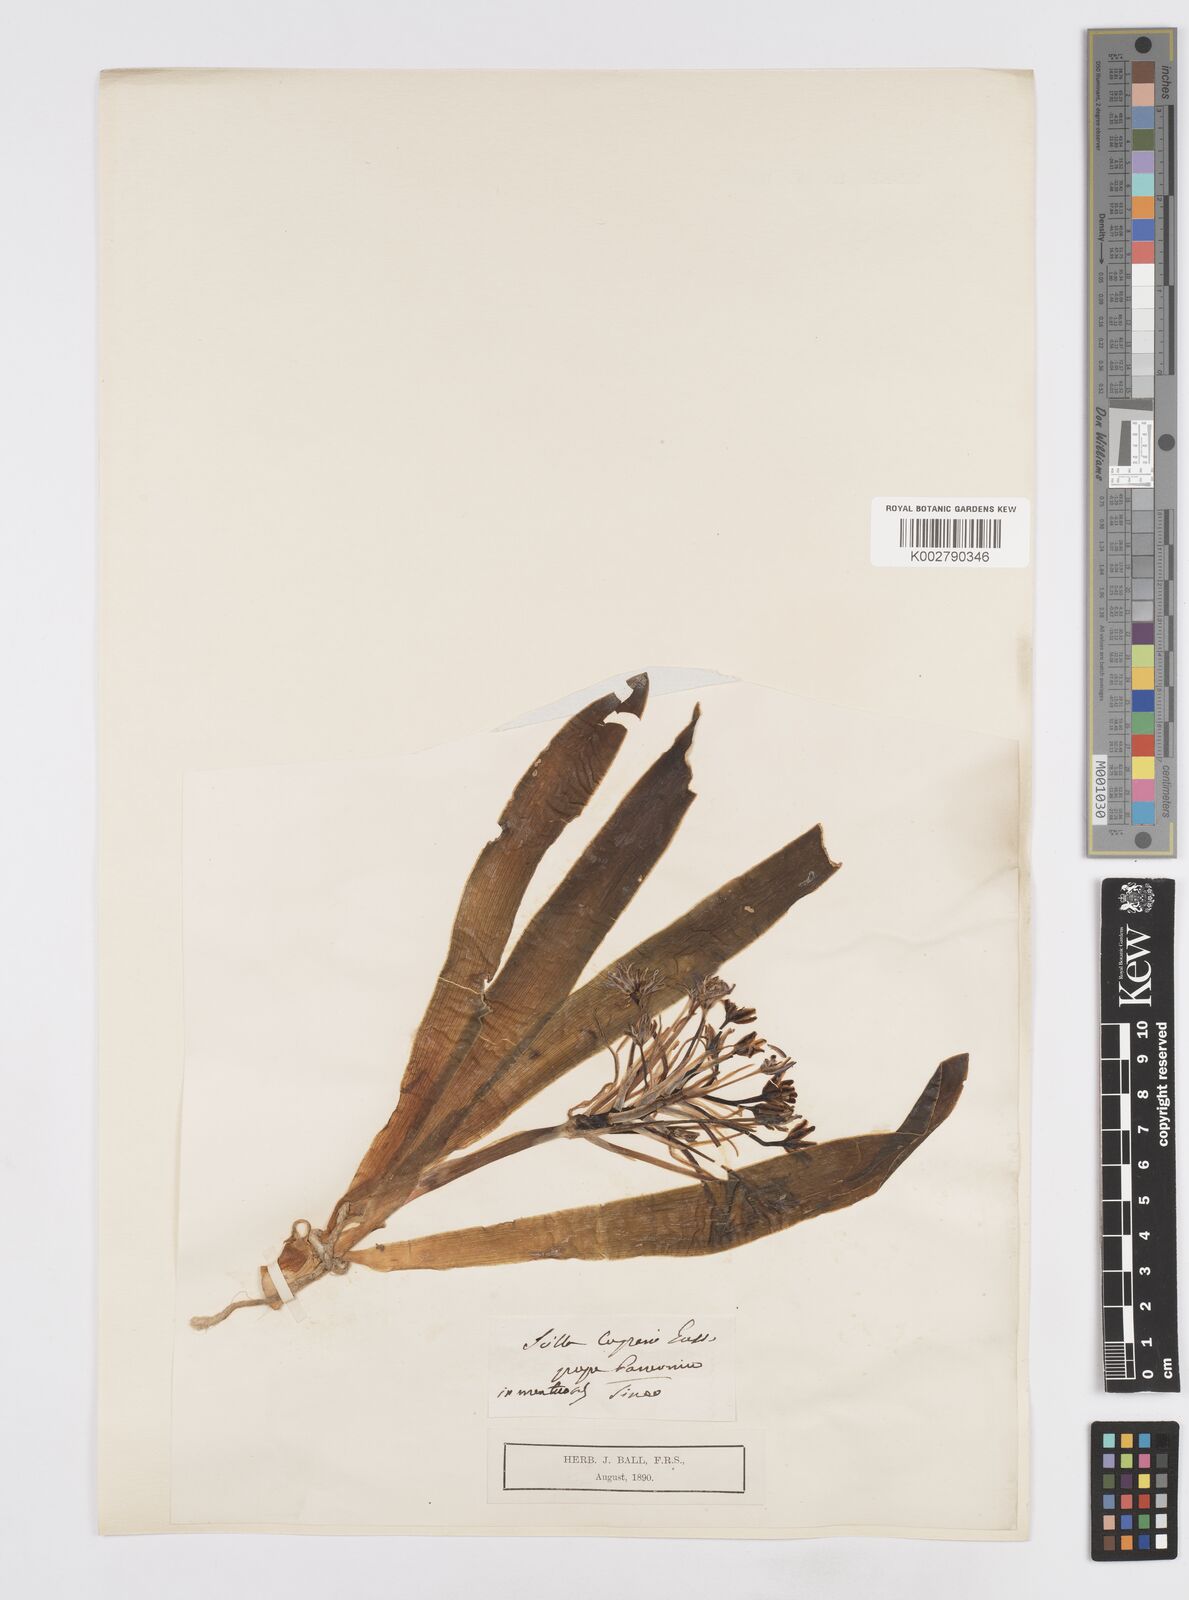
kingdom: Plantae
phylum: Tracheophyta
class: Liliopsida
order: Asparagales
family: Asparagaceae
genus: Scilla
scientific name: Scilla peruviana
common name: Portuguese squill
